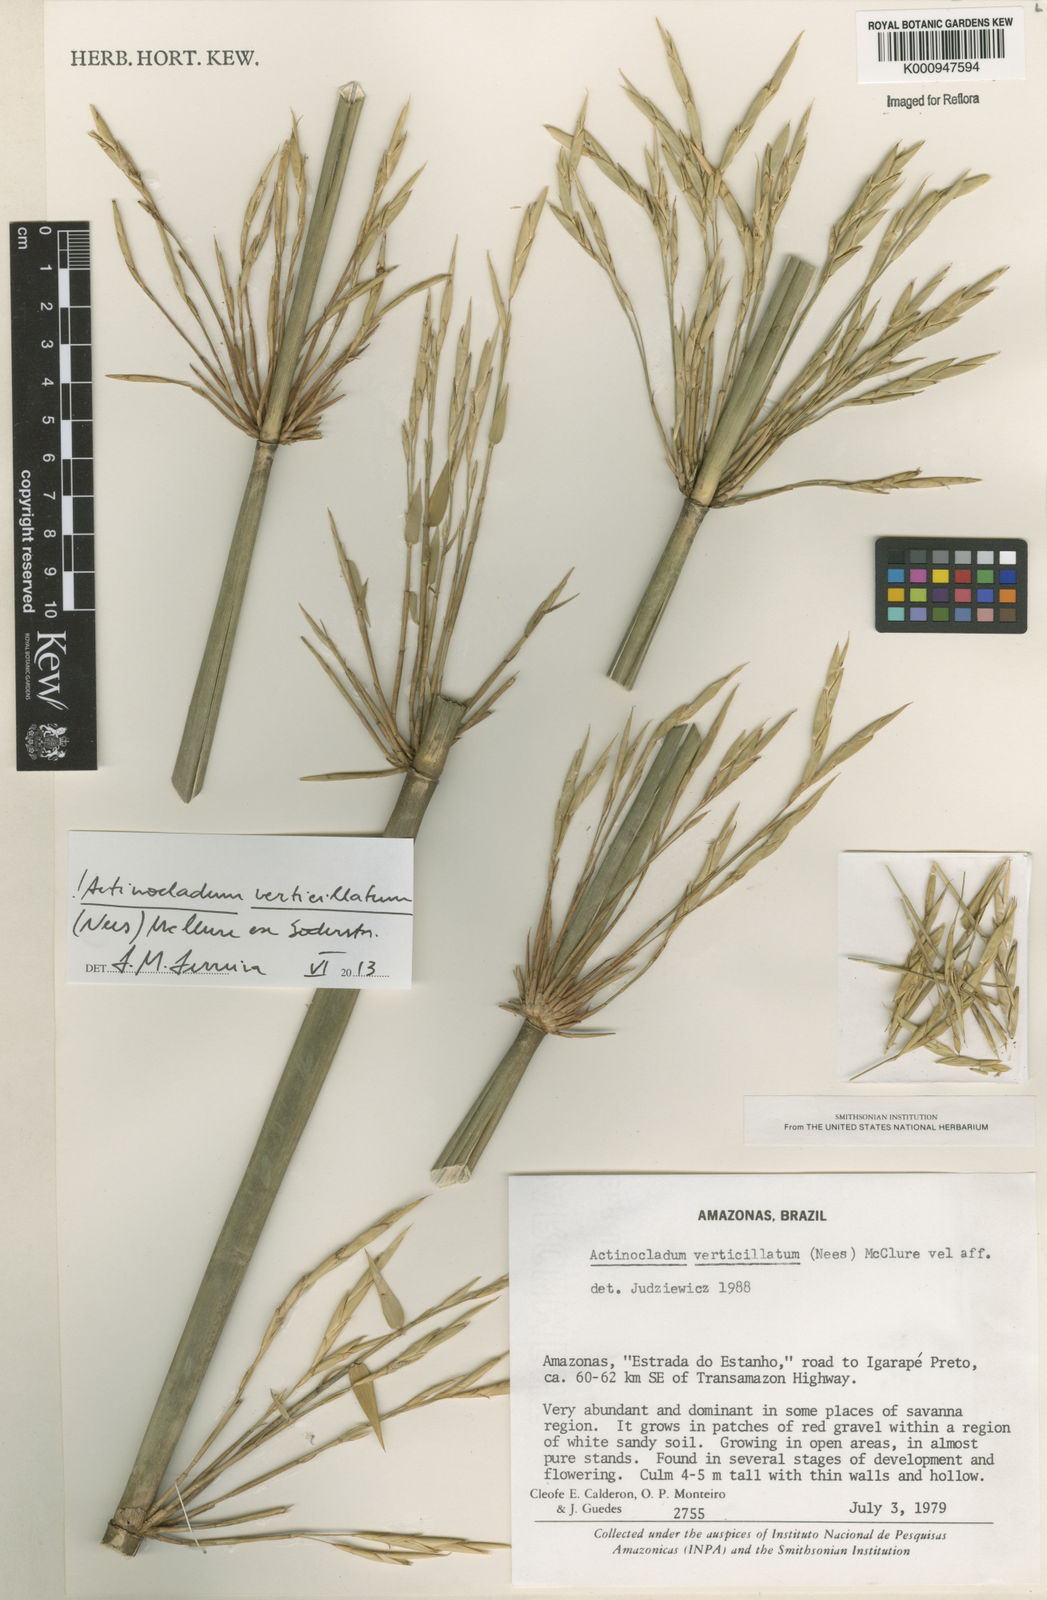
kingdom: Plantae
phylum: Tracheophyta
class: Liliopsida
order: Poales
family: Poaceae
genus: Actinocladum
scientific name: Actinocladum verticillatum
